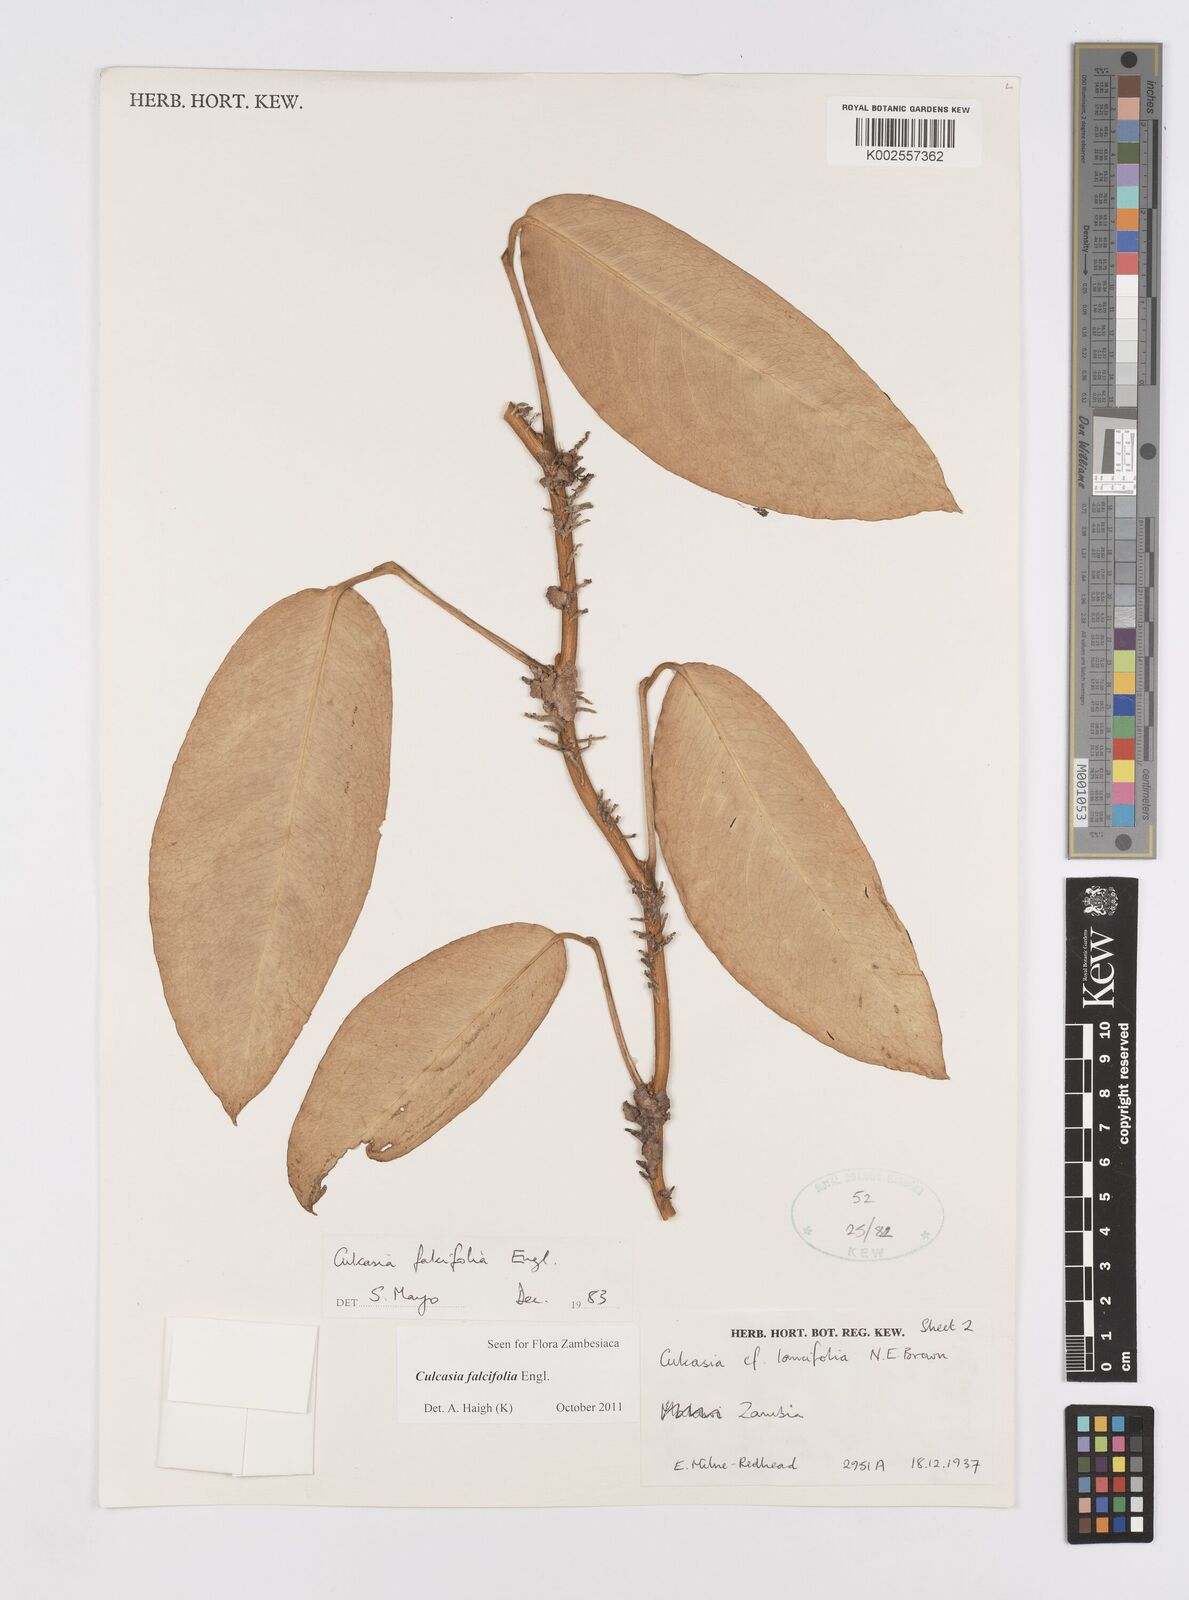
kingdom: Plantae
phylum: Tracheophyta
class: Liliopsida
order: Alismatales
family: Araceae
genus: Culcasia
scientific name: Culcasia falcifolia
